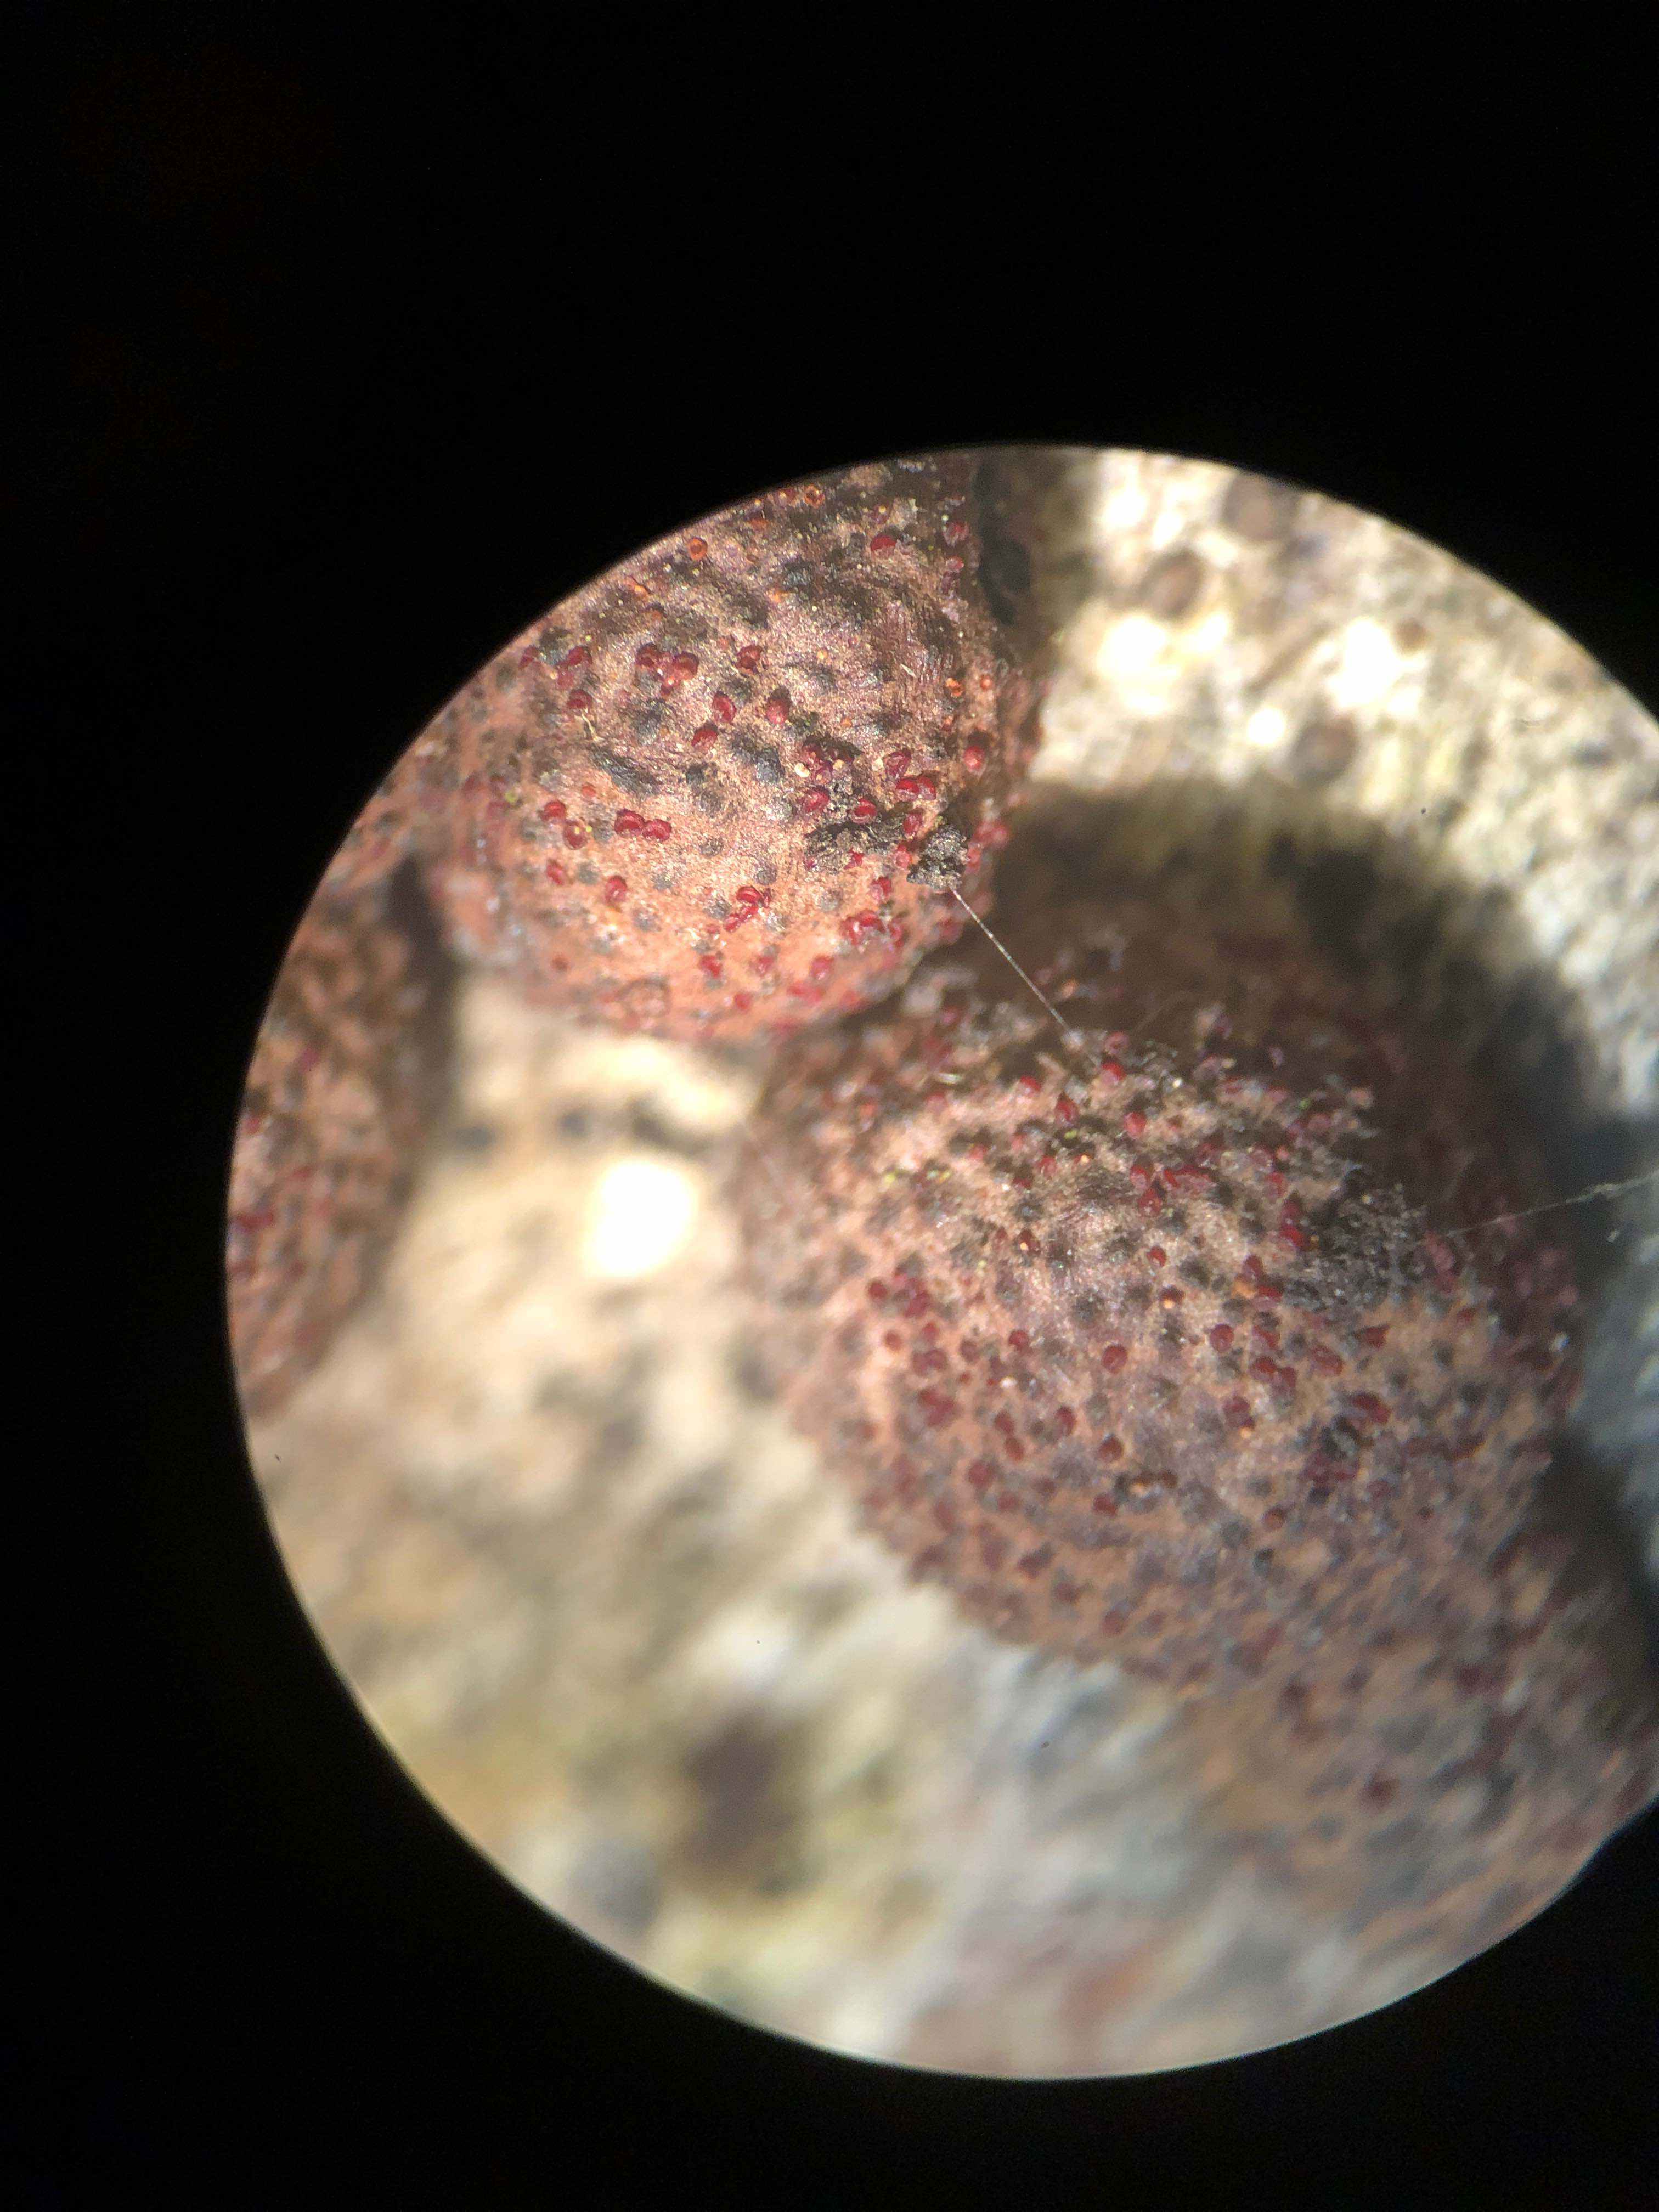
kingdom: Fungi
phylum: Ascomycota
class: Sordariomycetes
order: Hypocreales
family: Nectriaceae
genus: Cosmospora
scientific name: Cosmospora arxii
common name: kuljordbær-cinnobersvamp
